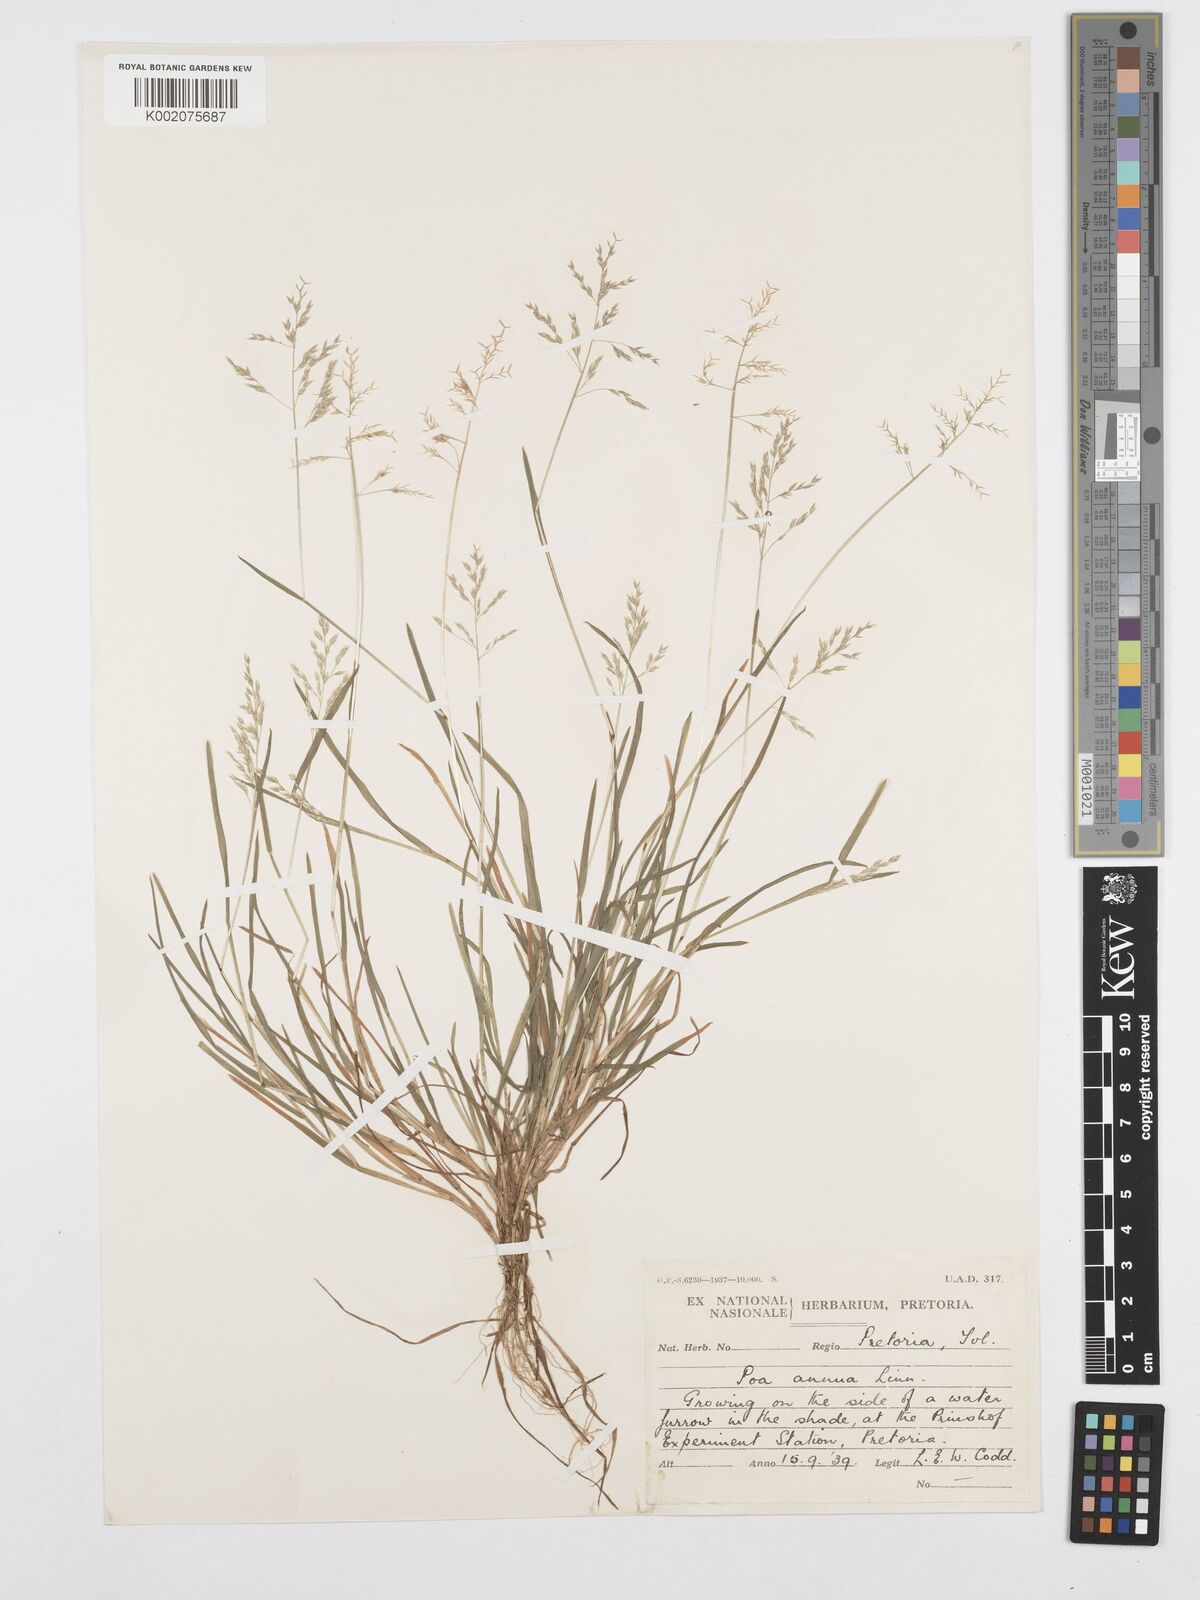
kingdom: Plantae
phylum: Tracheophyta
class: Liliopsida
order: Poales
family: Poaceae
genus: Poa
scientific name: Poa annua
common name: Annual bluegrass
